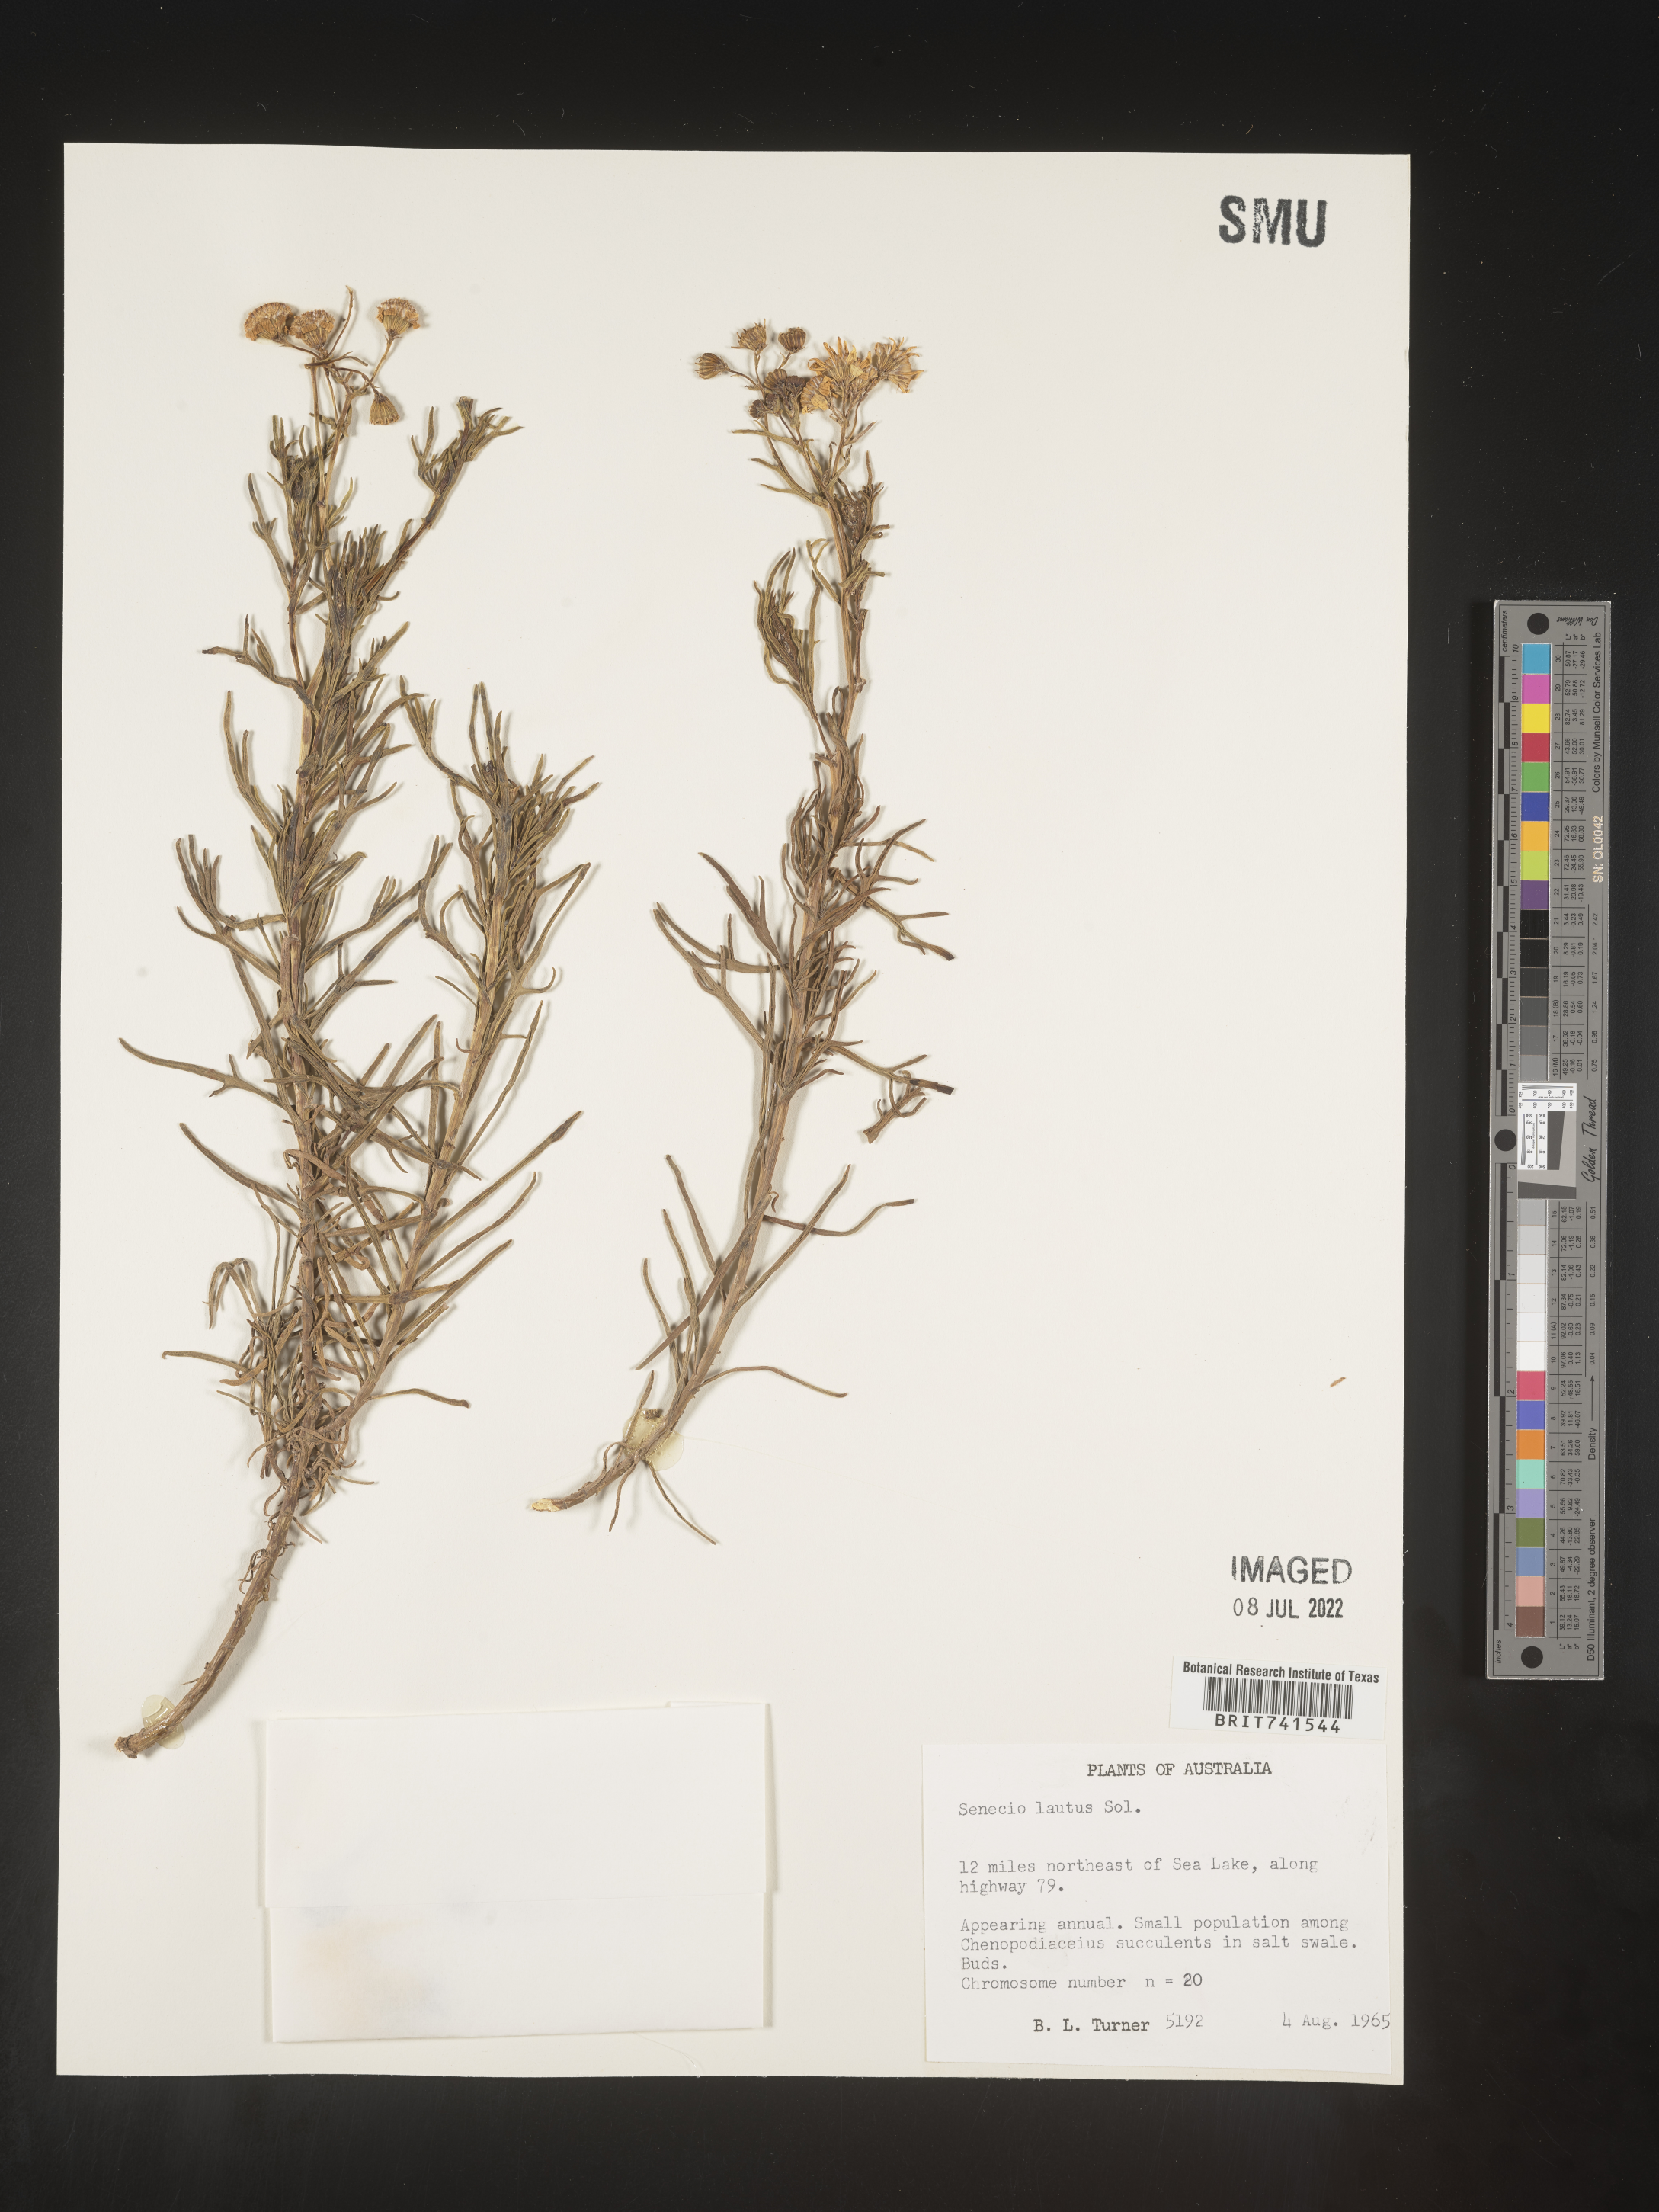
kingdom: Plantae
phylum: Tracheophyta
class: Magnoliopsida
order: Asterales
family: Asteraceae
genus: Senecio
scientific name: Senecio
